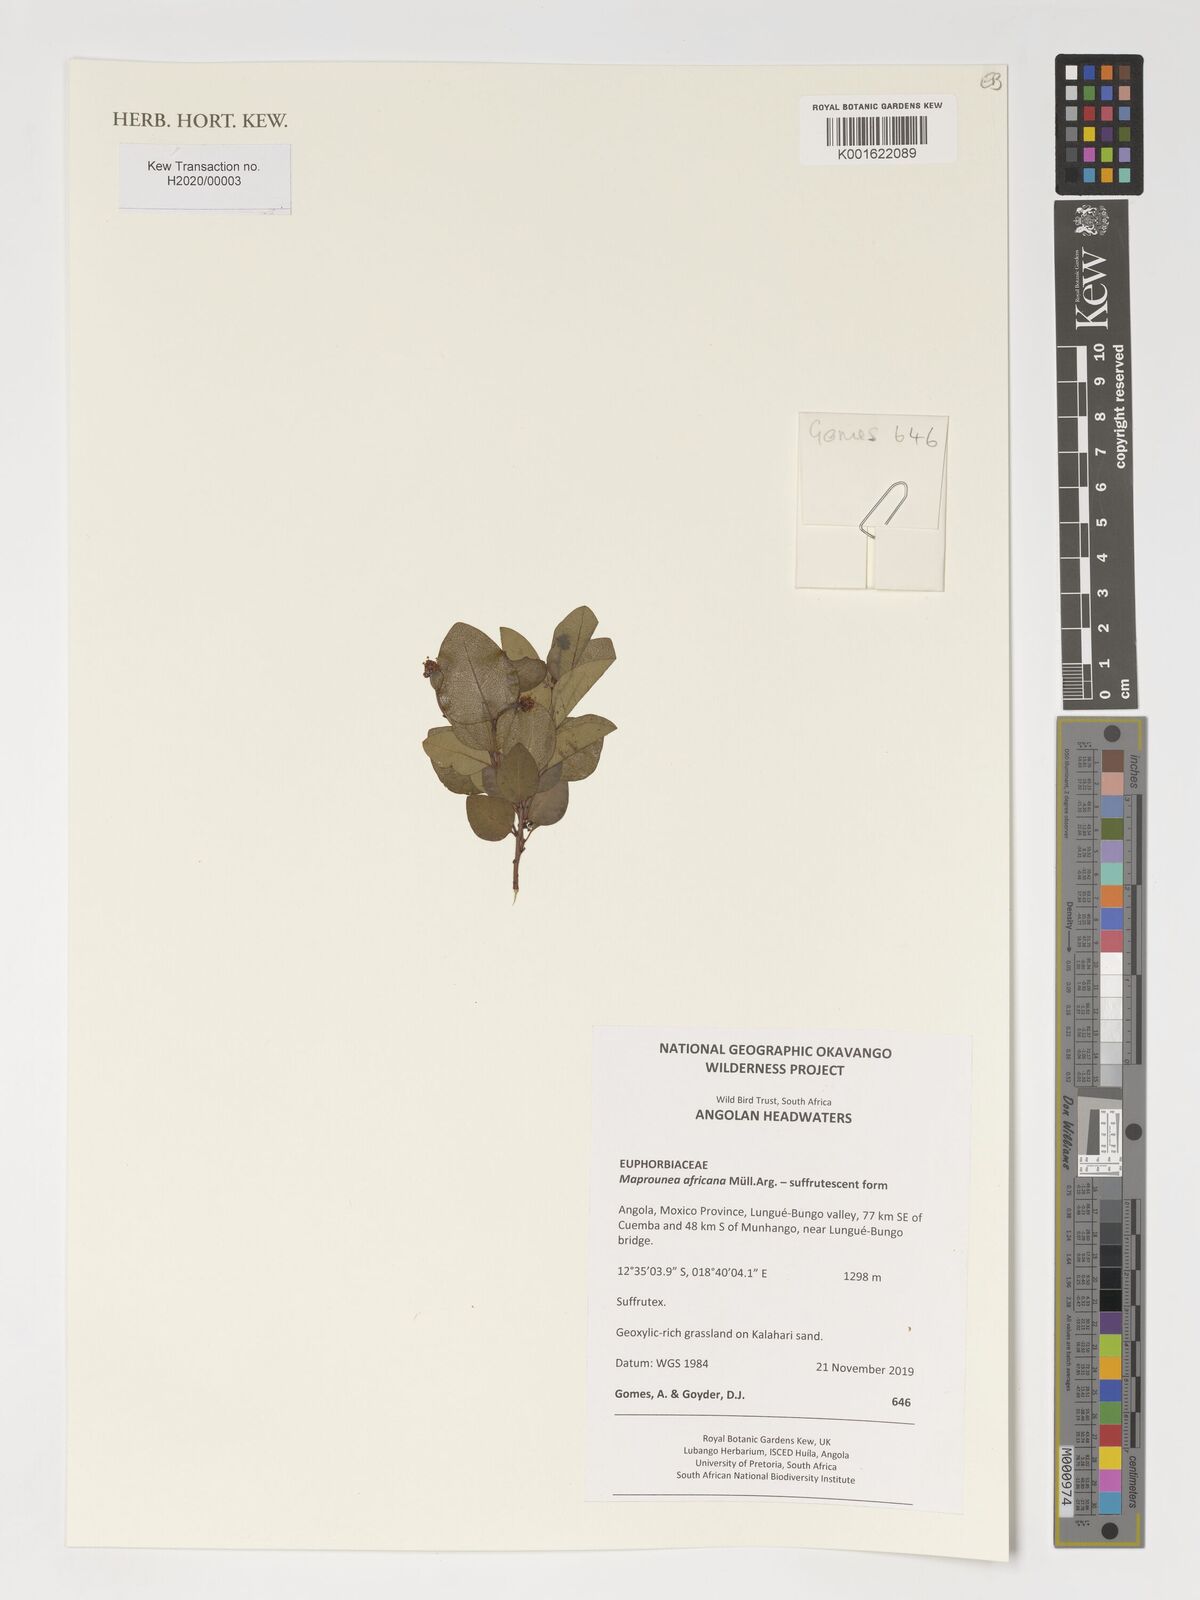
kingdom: Plantae
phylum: Tracheophyta
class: Magnoliopsida
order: Malpighiales
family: Euphorbiaceae
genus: Maprounea
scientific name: Maprounea africana
